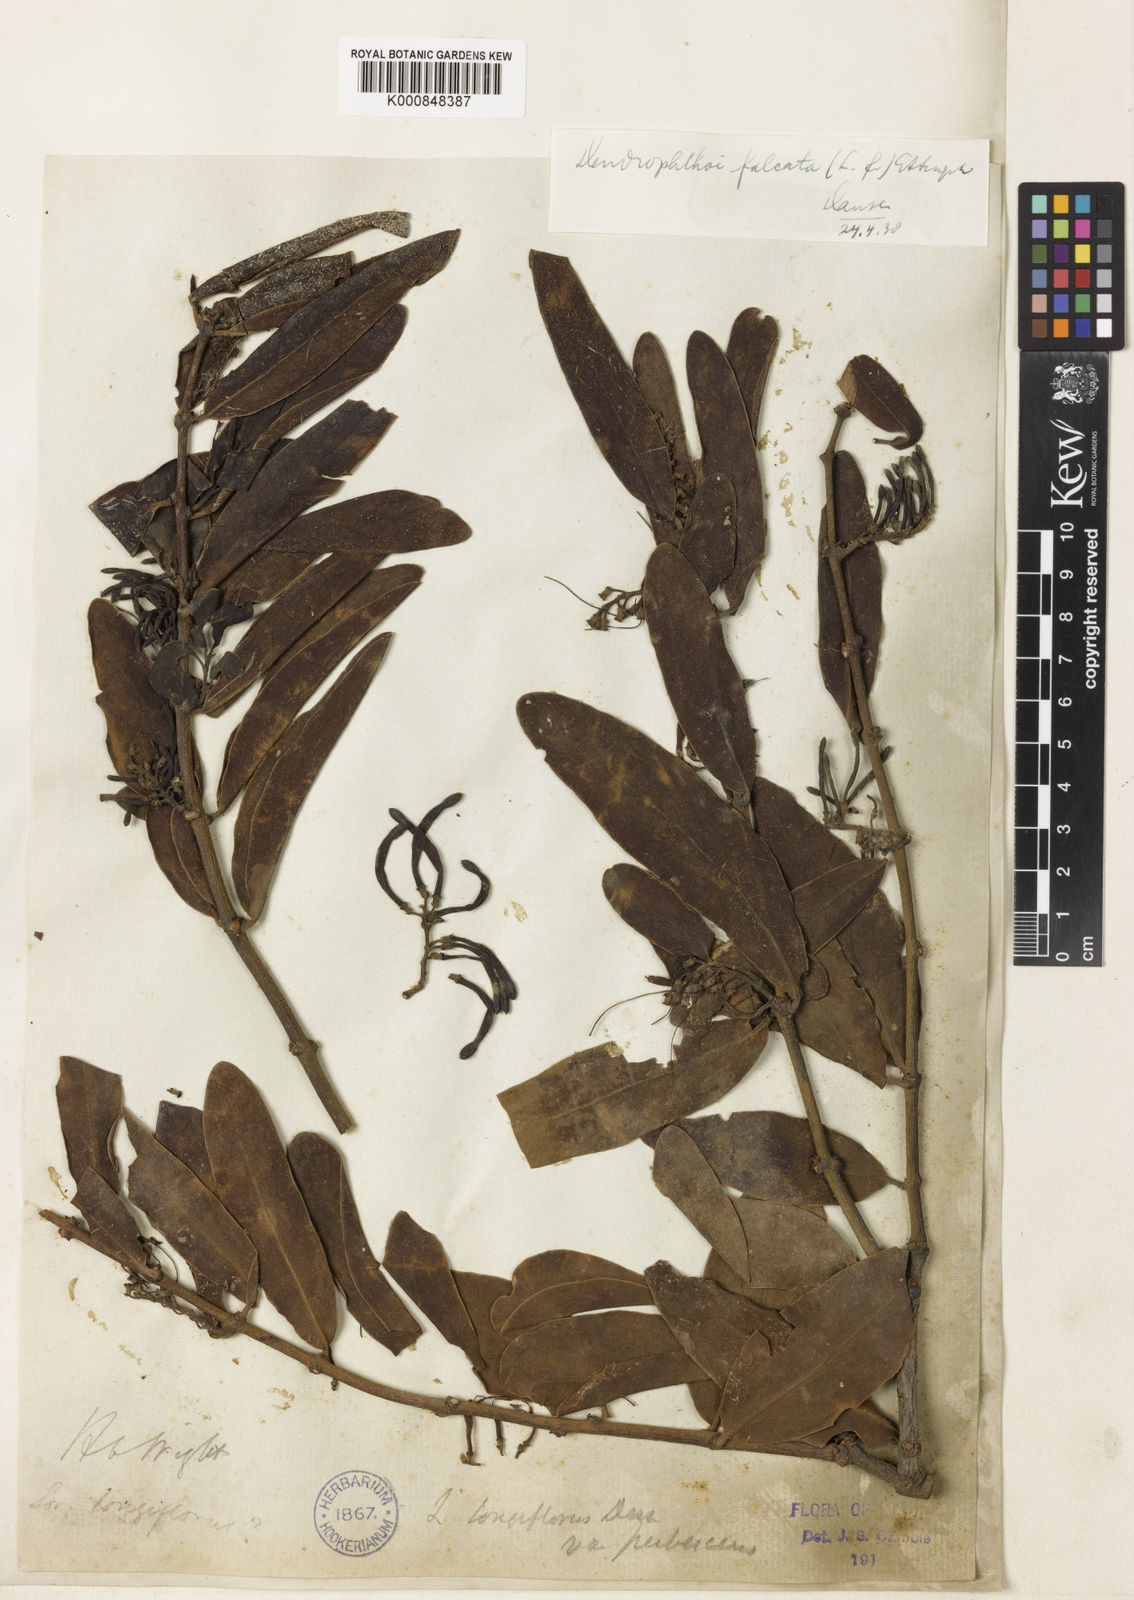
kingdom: Plantae
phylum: Tracheophyta
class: Magnoliopsida
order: Santalales
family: Loranthaceae
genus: Dendrophthoe
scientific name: Dendrophthoe
